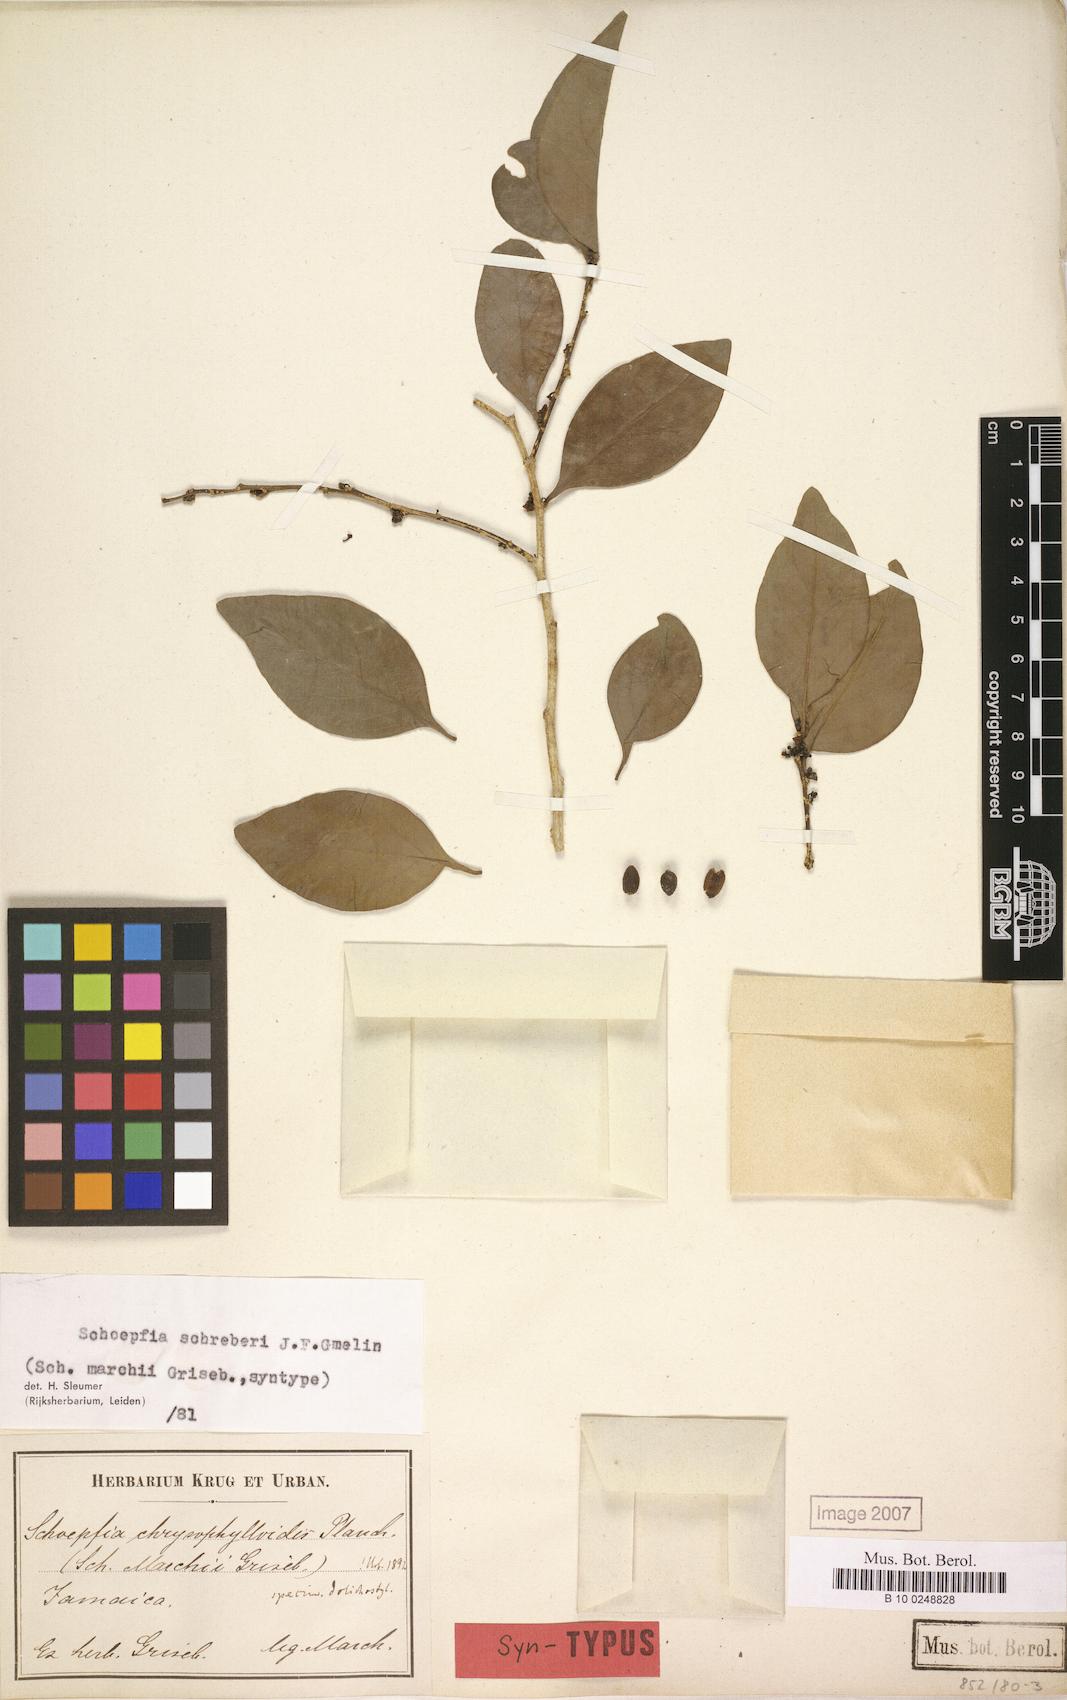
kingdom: Plantae
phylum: Tracheophyta
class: Magnoliopsida
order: Santalales
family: Schoepfiaceae
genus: Schoepfia
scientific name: Schoepfia schreberi
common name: Gulf graytwig
